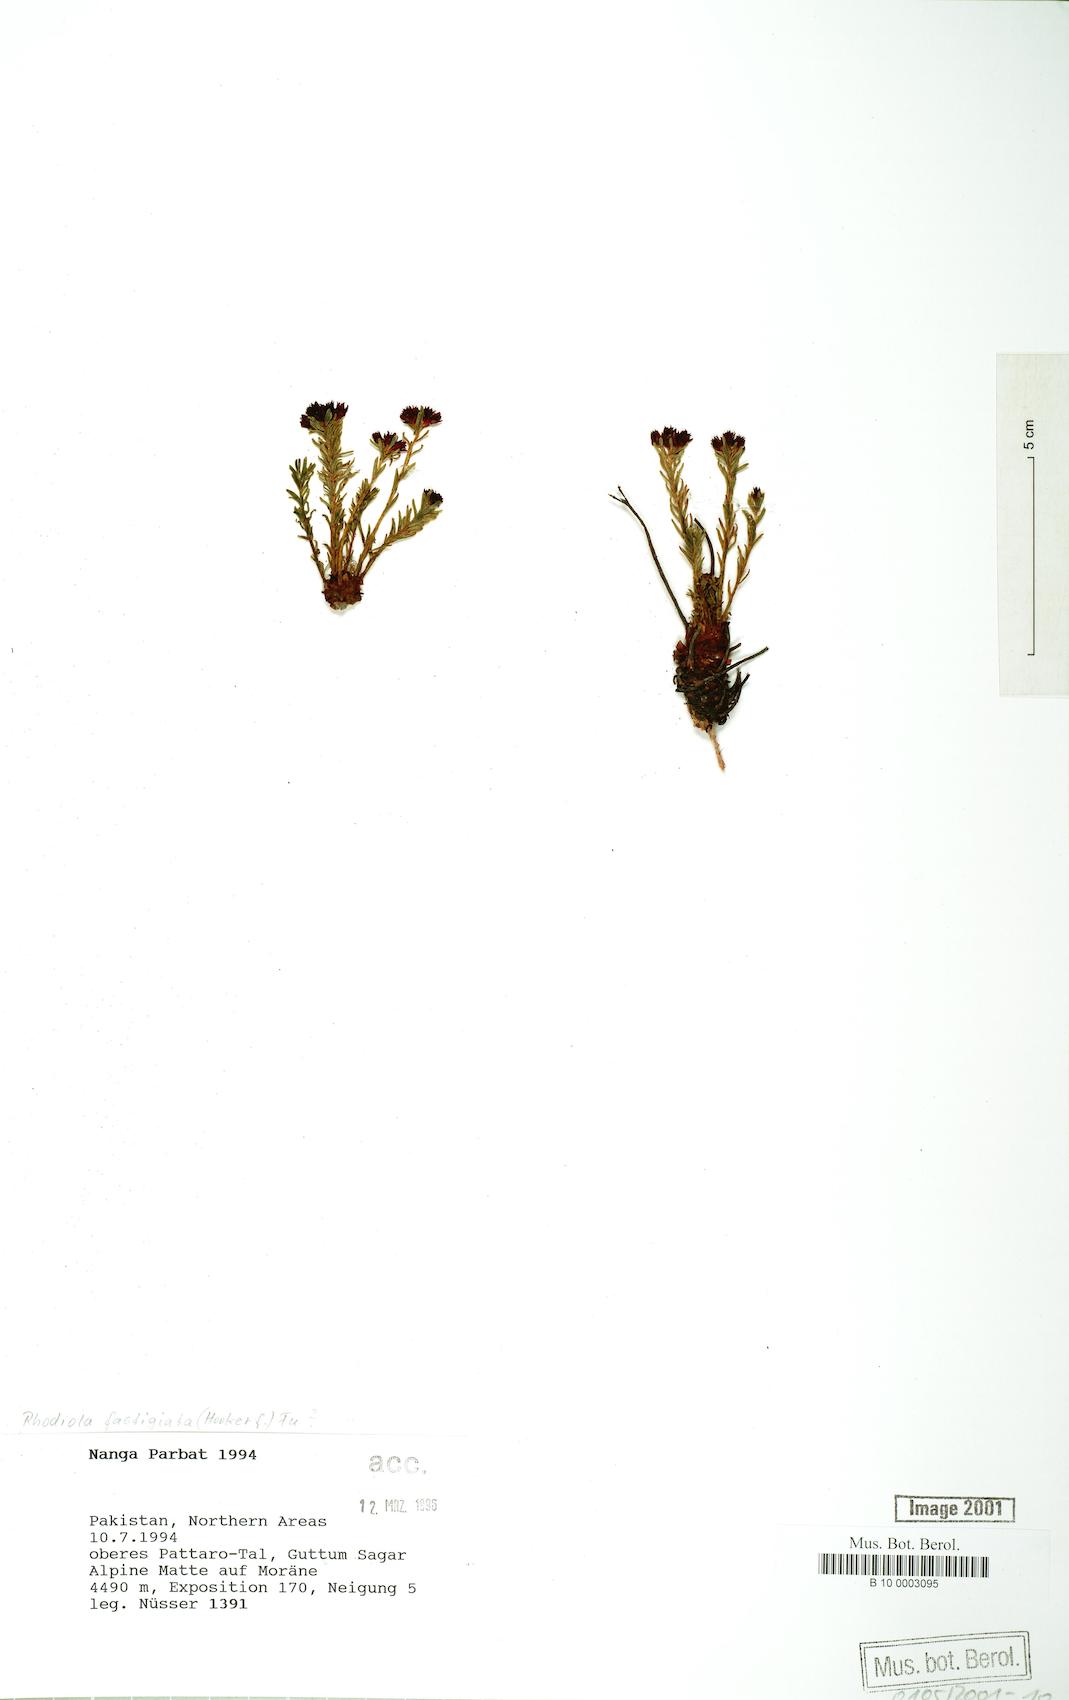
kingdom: Plantae
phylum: Tracheophyta
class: Magnoliopsida
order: Saxifragales
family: Crassulaceae
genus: Rhodiola
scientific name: Rhodiola fastigiata
